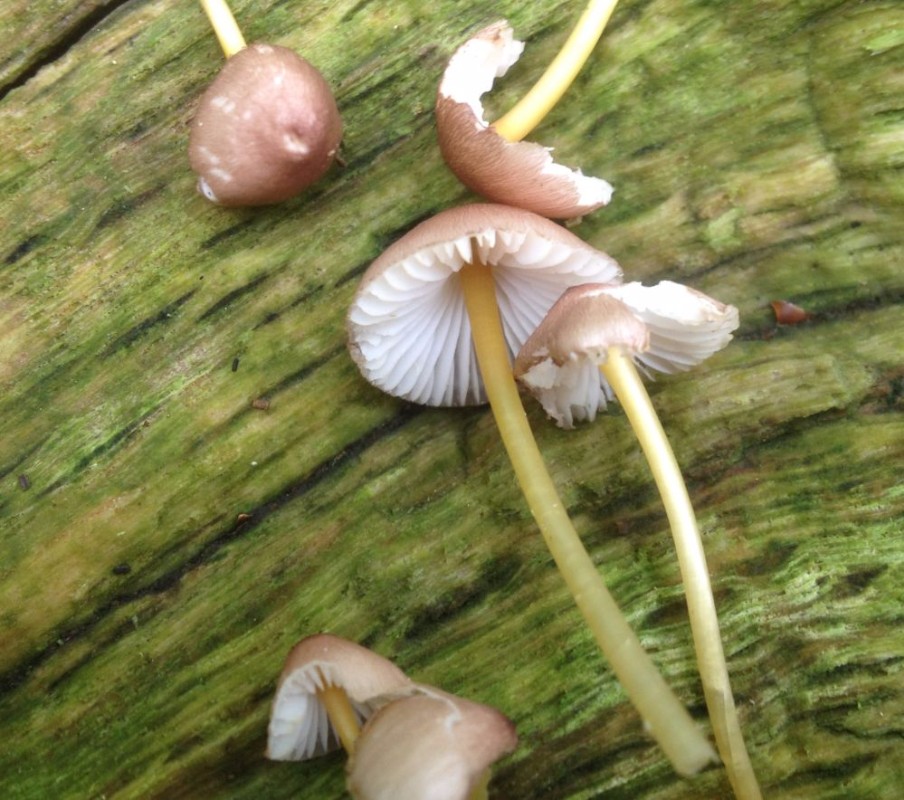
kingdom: Fungi
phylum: Basidiomycota
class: Agaricomycetes
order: Agaricales
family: Mycenaceae
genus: Mycena
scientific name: Mycena renati
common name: smuk huesvamp
